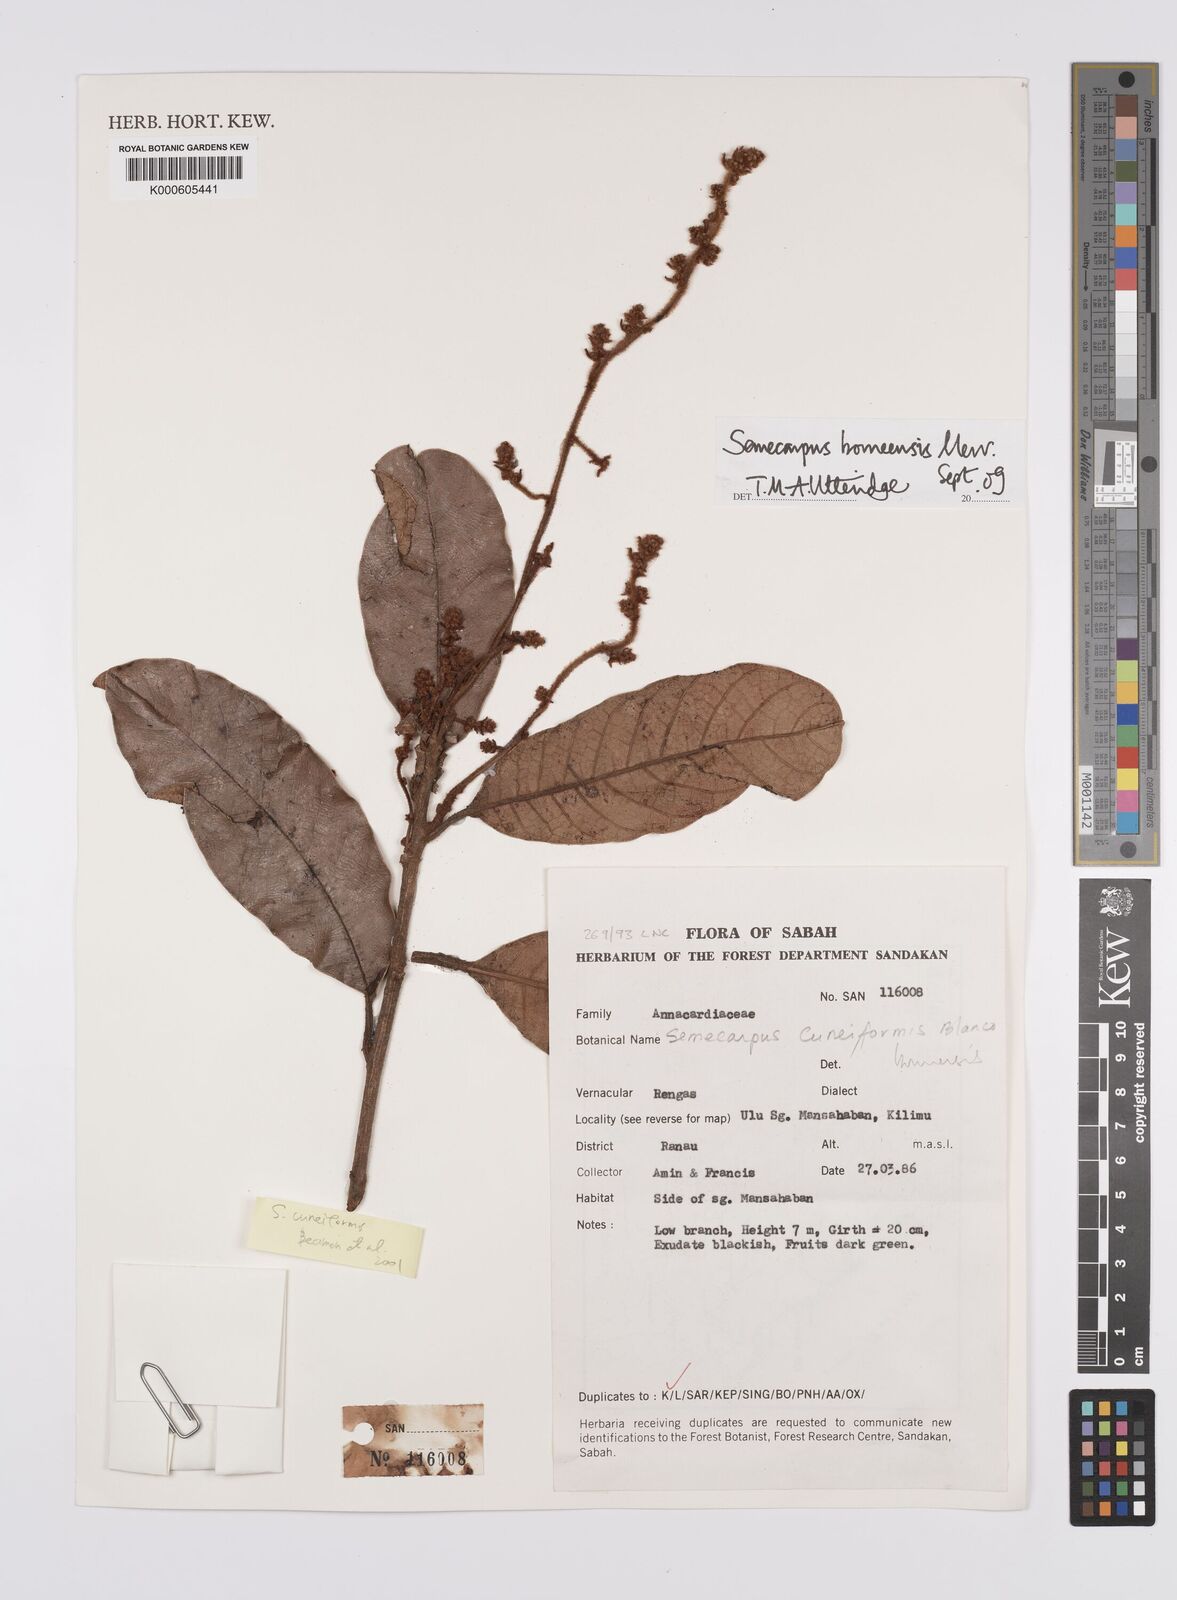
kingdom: Plantae
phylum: Tracheophyta
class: Magnoliopsida
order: Sapindales
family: Anacardiaceae
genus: Semecarpus
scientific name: Semecarpus borneensis
